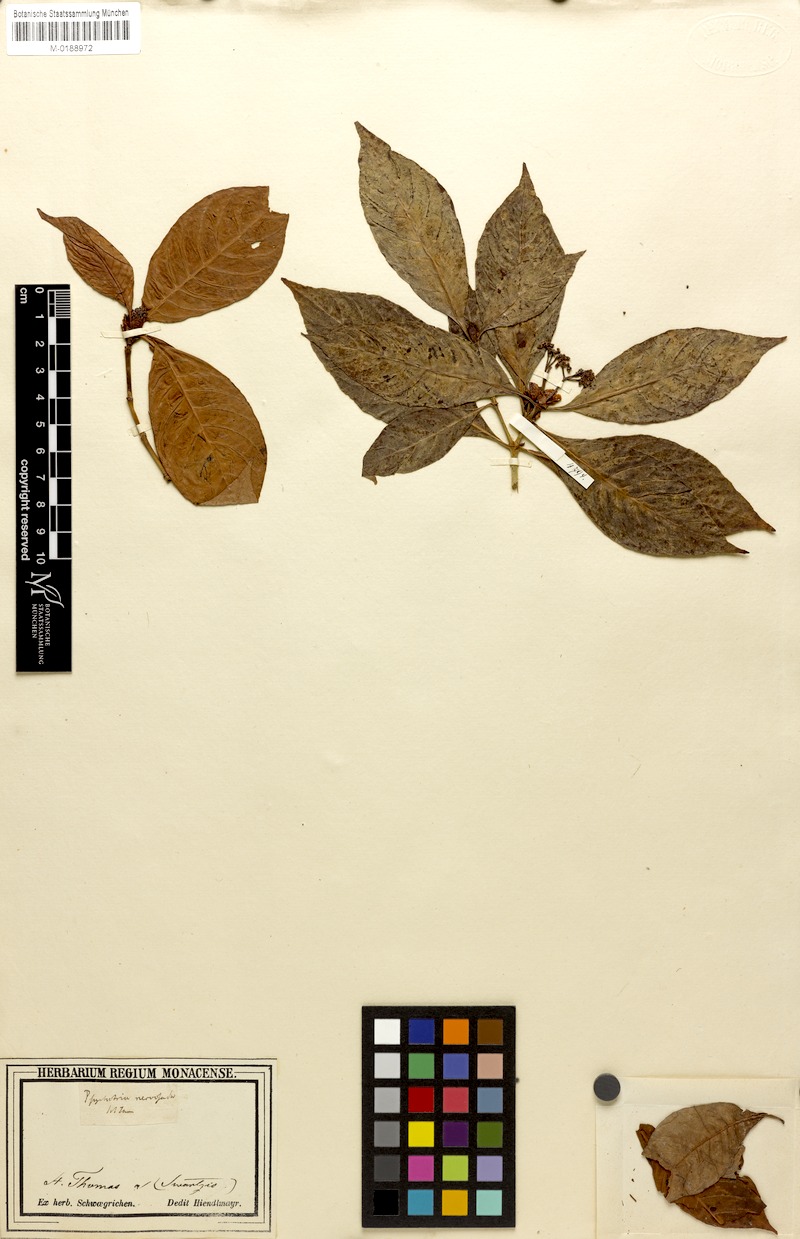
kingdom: Plantae
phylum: Tracheophyta
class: Magnoliopsida
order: Gentianales
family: Rubiaceae
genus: Psychotria
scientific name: Psychotria nervosa
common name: Bastard cankerberry
